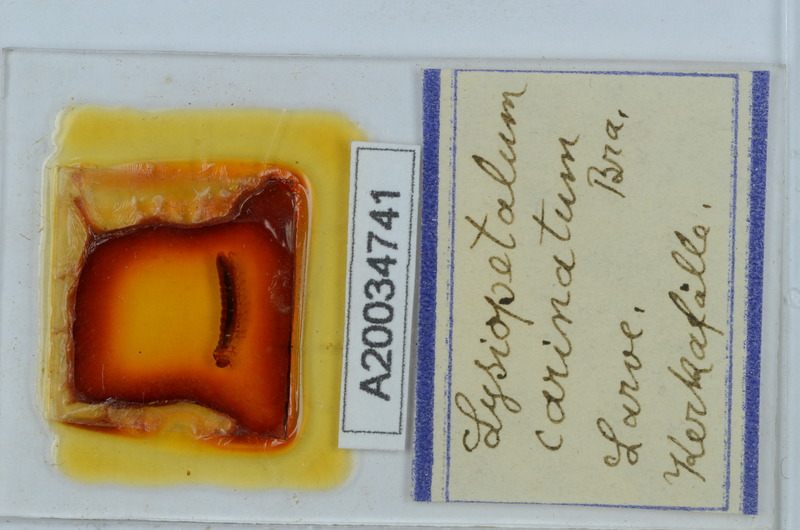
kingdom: Animalia
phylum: Arthropoda
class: Diplopoda
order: Callipodida
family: Schizopetalidae
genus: Acanthopetalum
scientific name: Acanthopetalum carinatum
